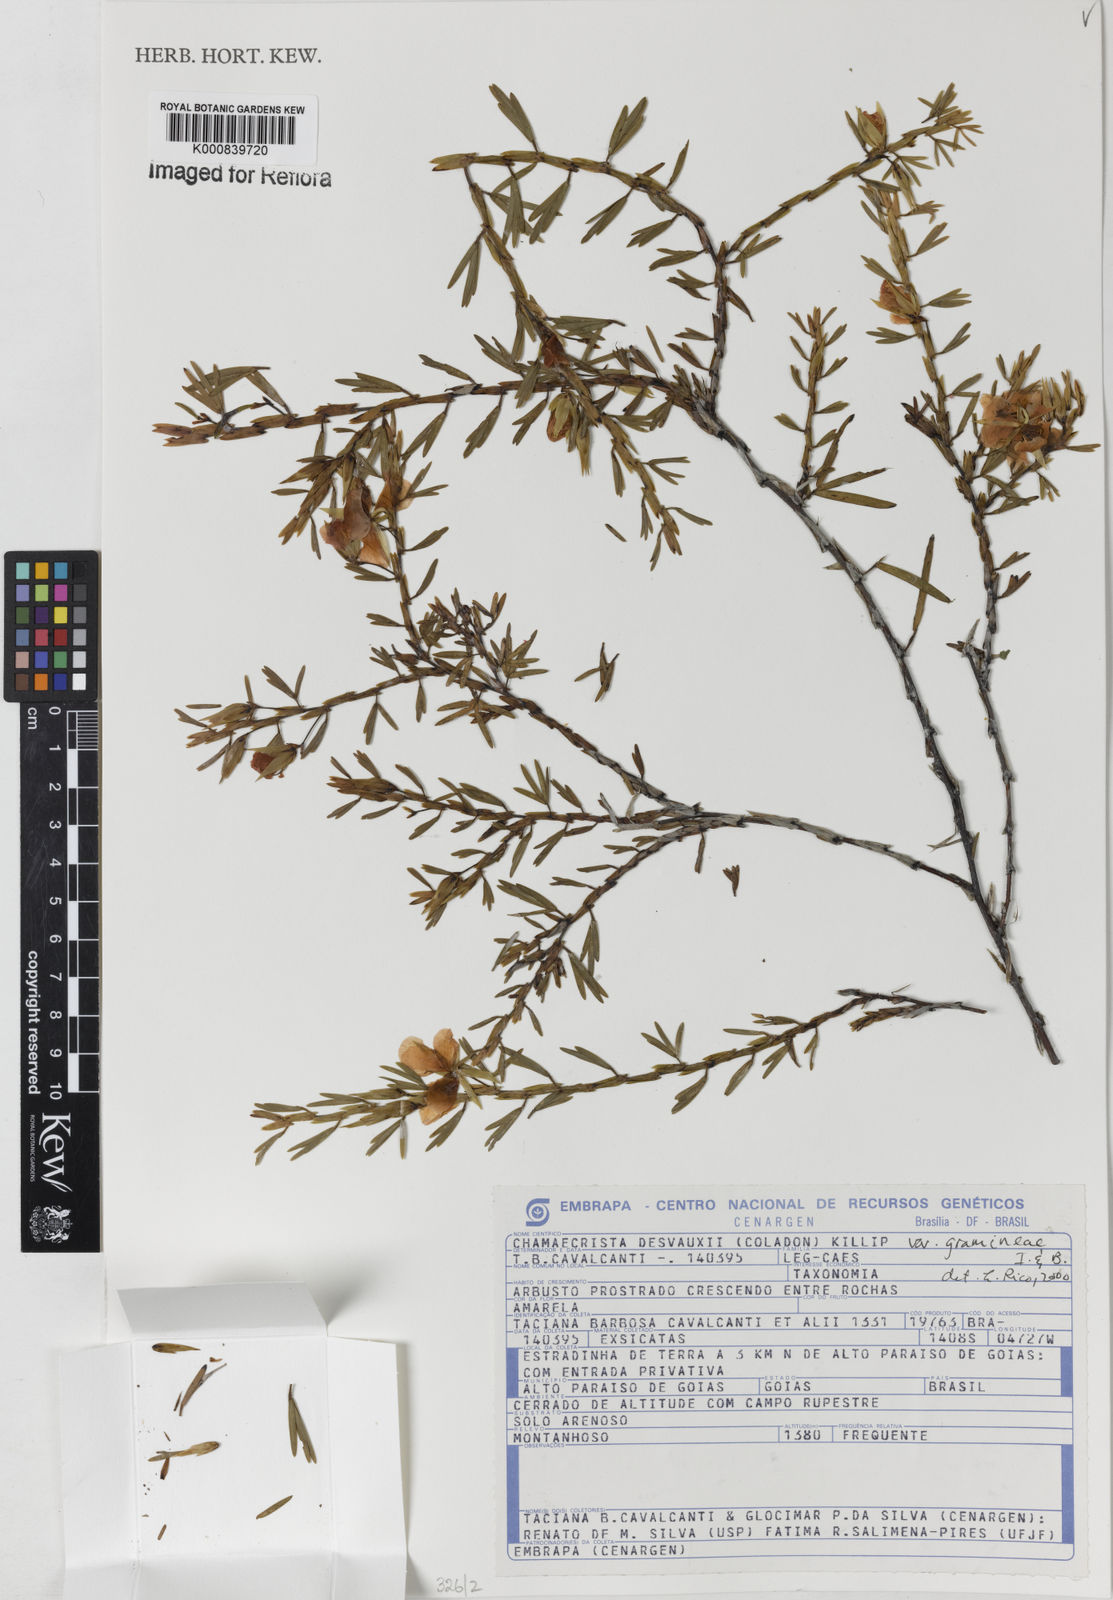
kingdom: Plantae
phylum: Tracheophyta
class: Magnoliopsida
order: Fabales
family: Fabaceae
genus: Chamaecrista
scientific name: Chamaecrista desvauxii
